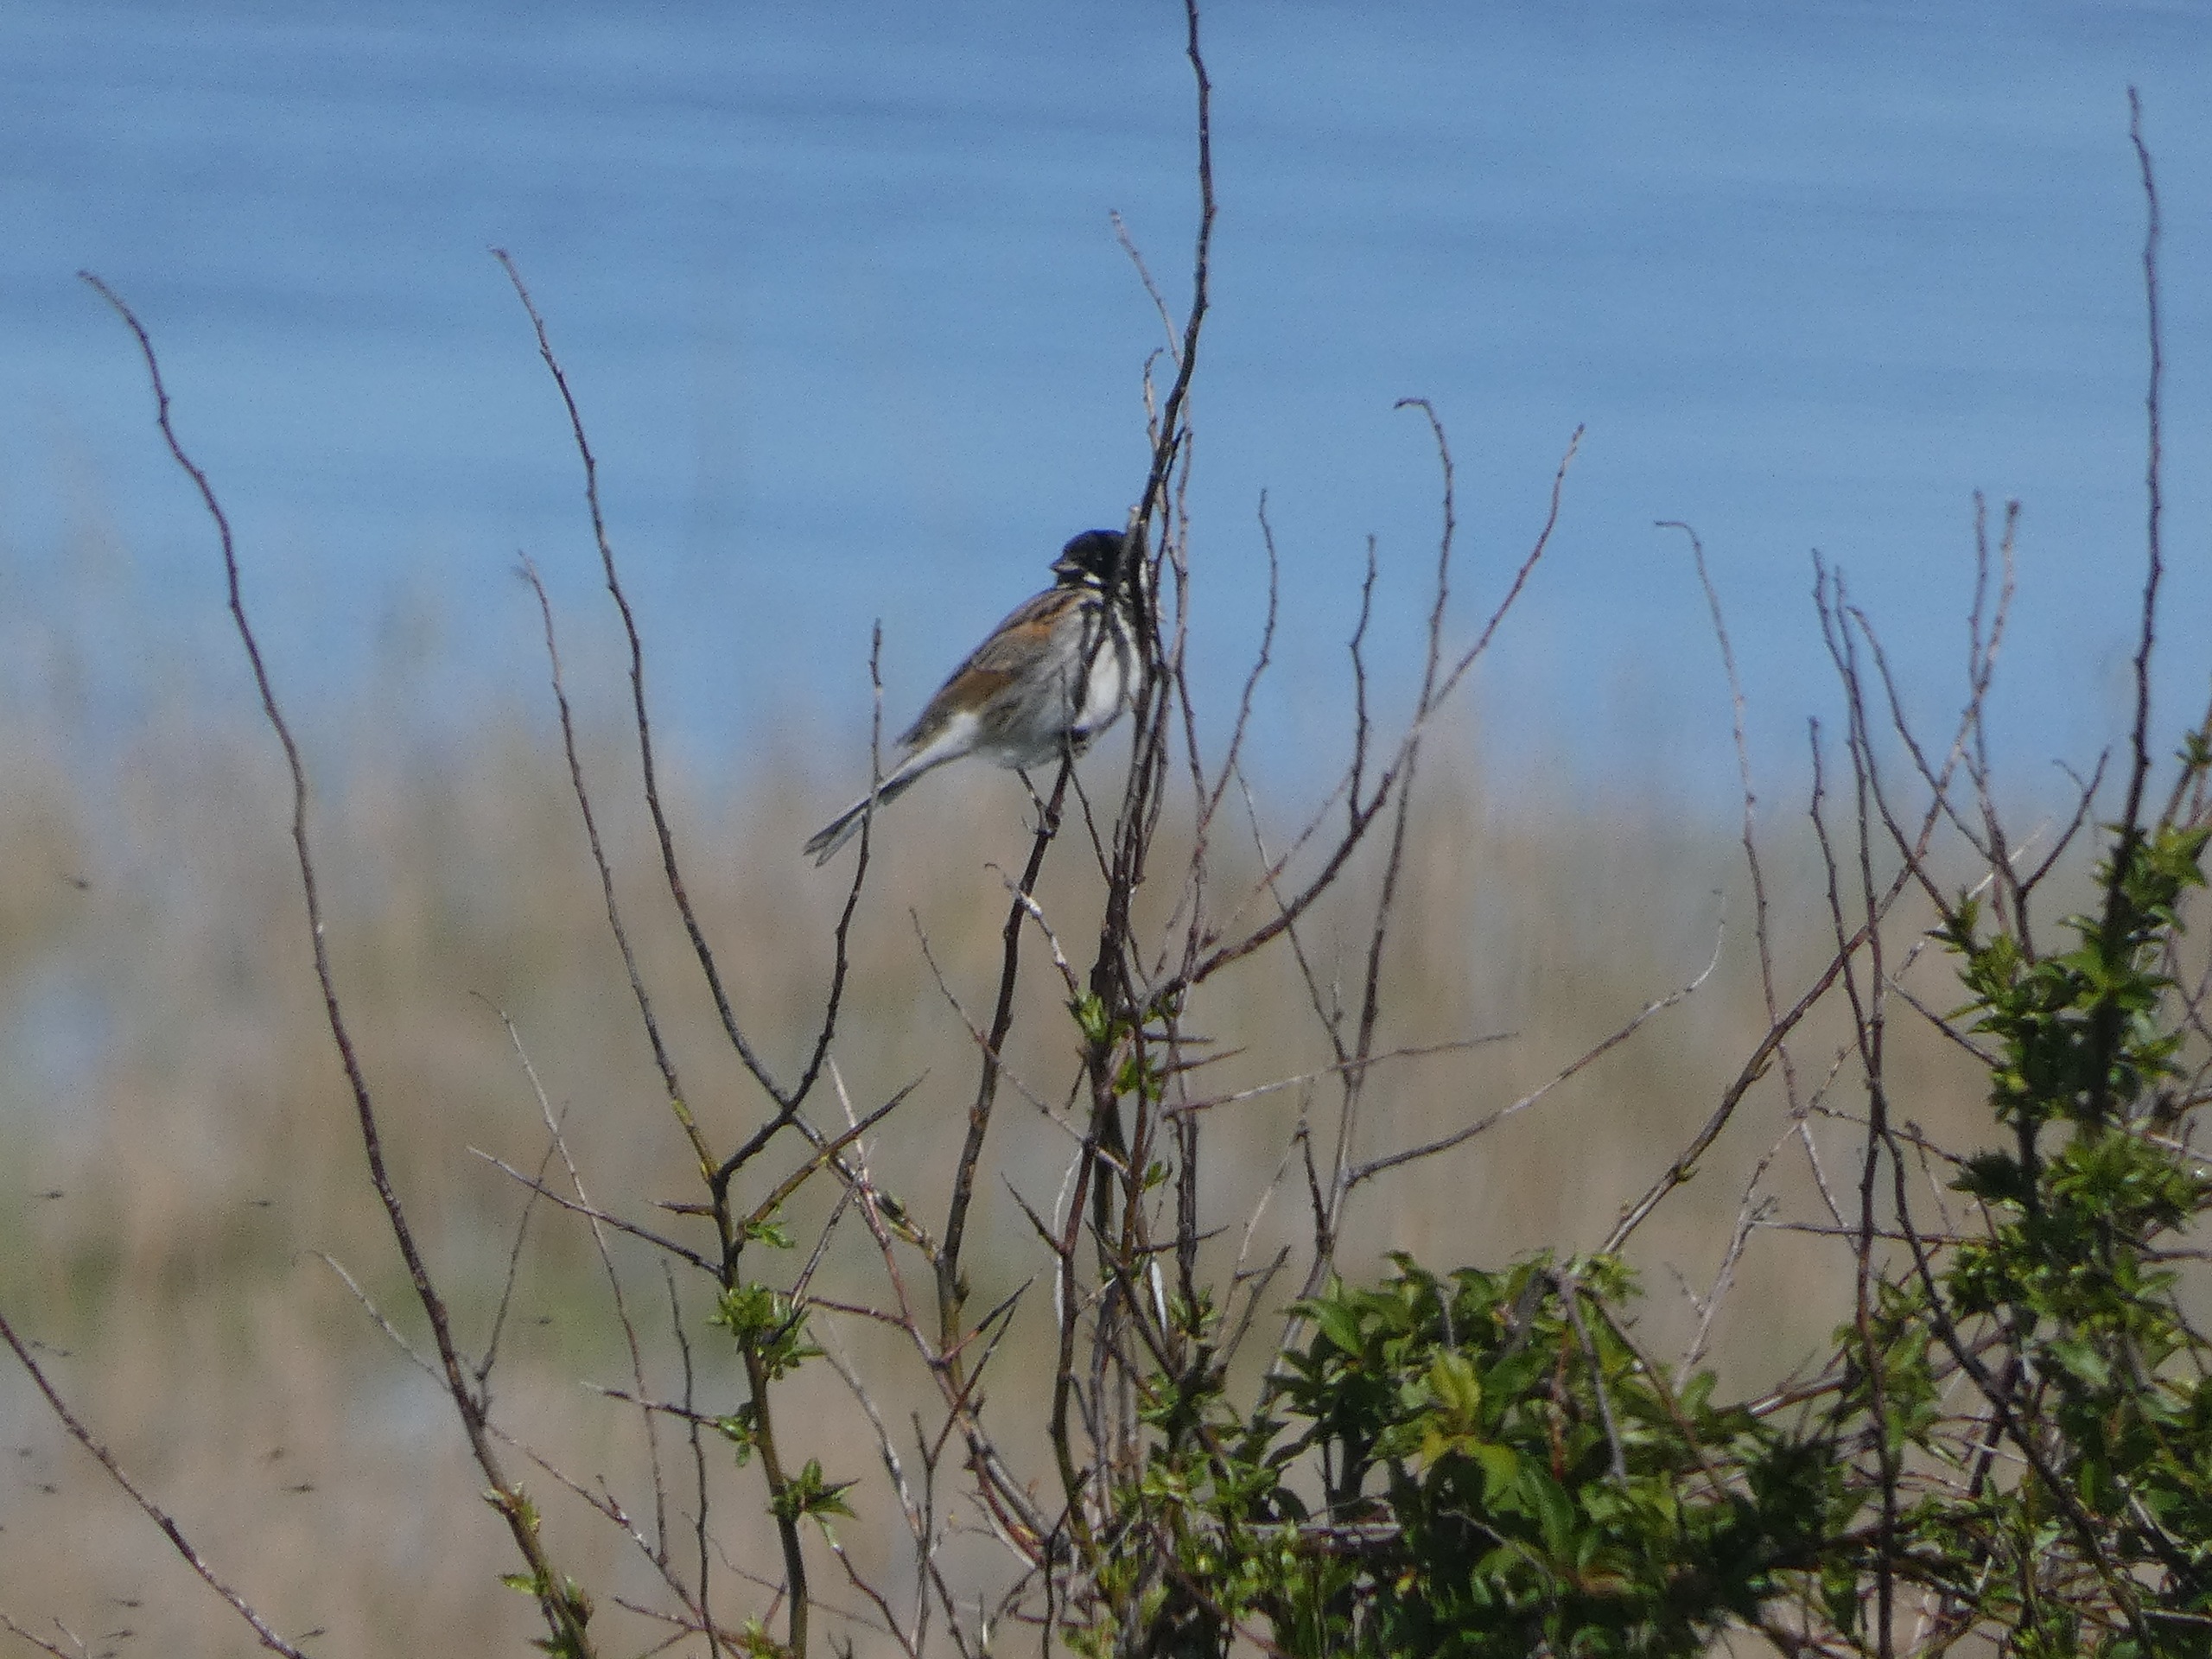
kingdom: Animalia
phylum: Chordata
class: Aves
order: Passeriformes
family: Emberizidae
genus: Emberiza
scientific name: Emberiza schoeniclus
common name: Rørspurv
